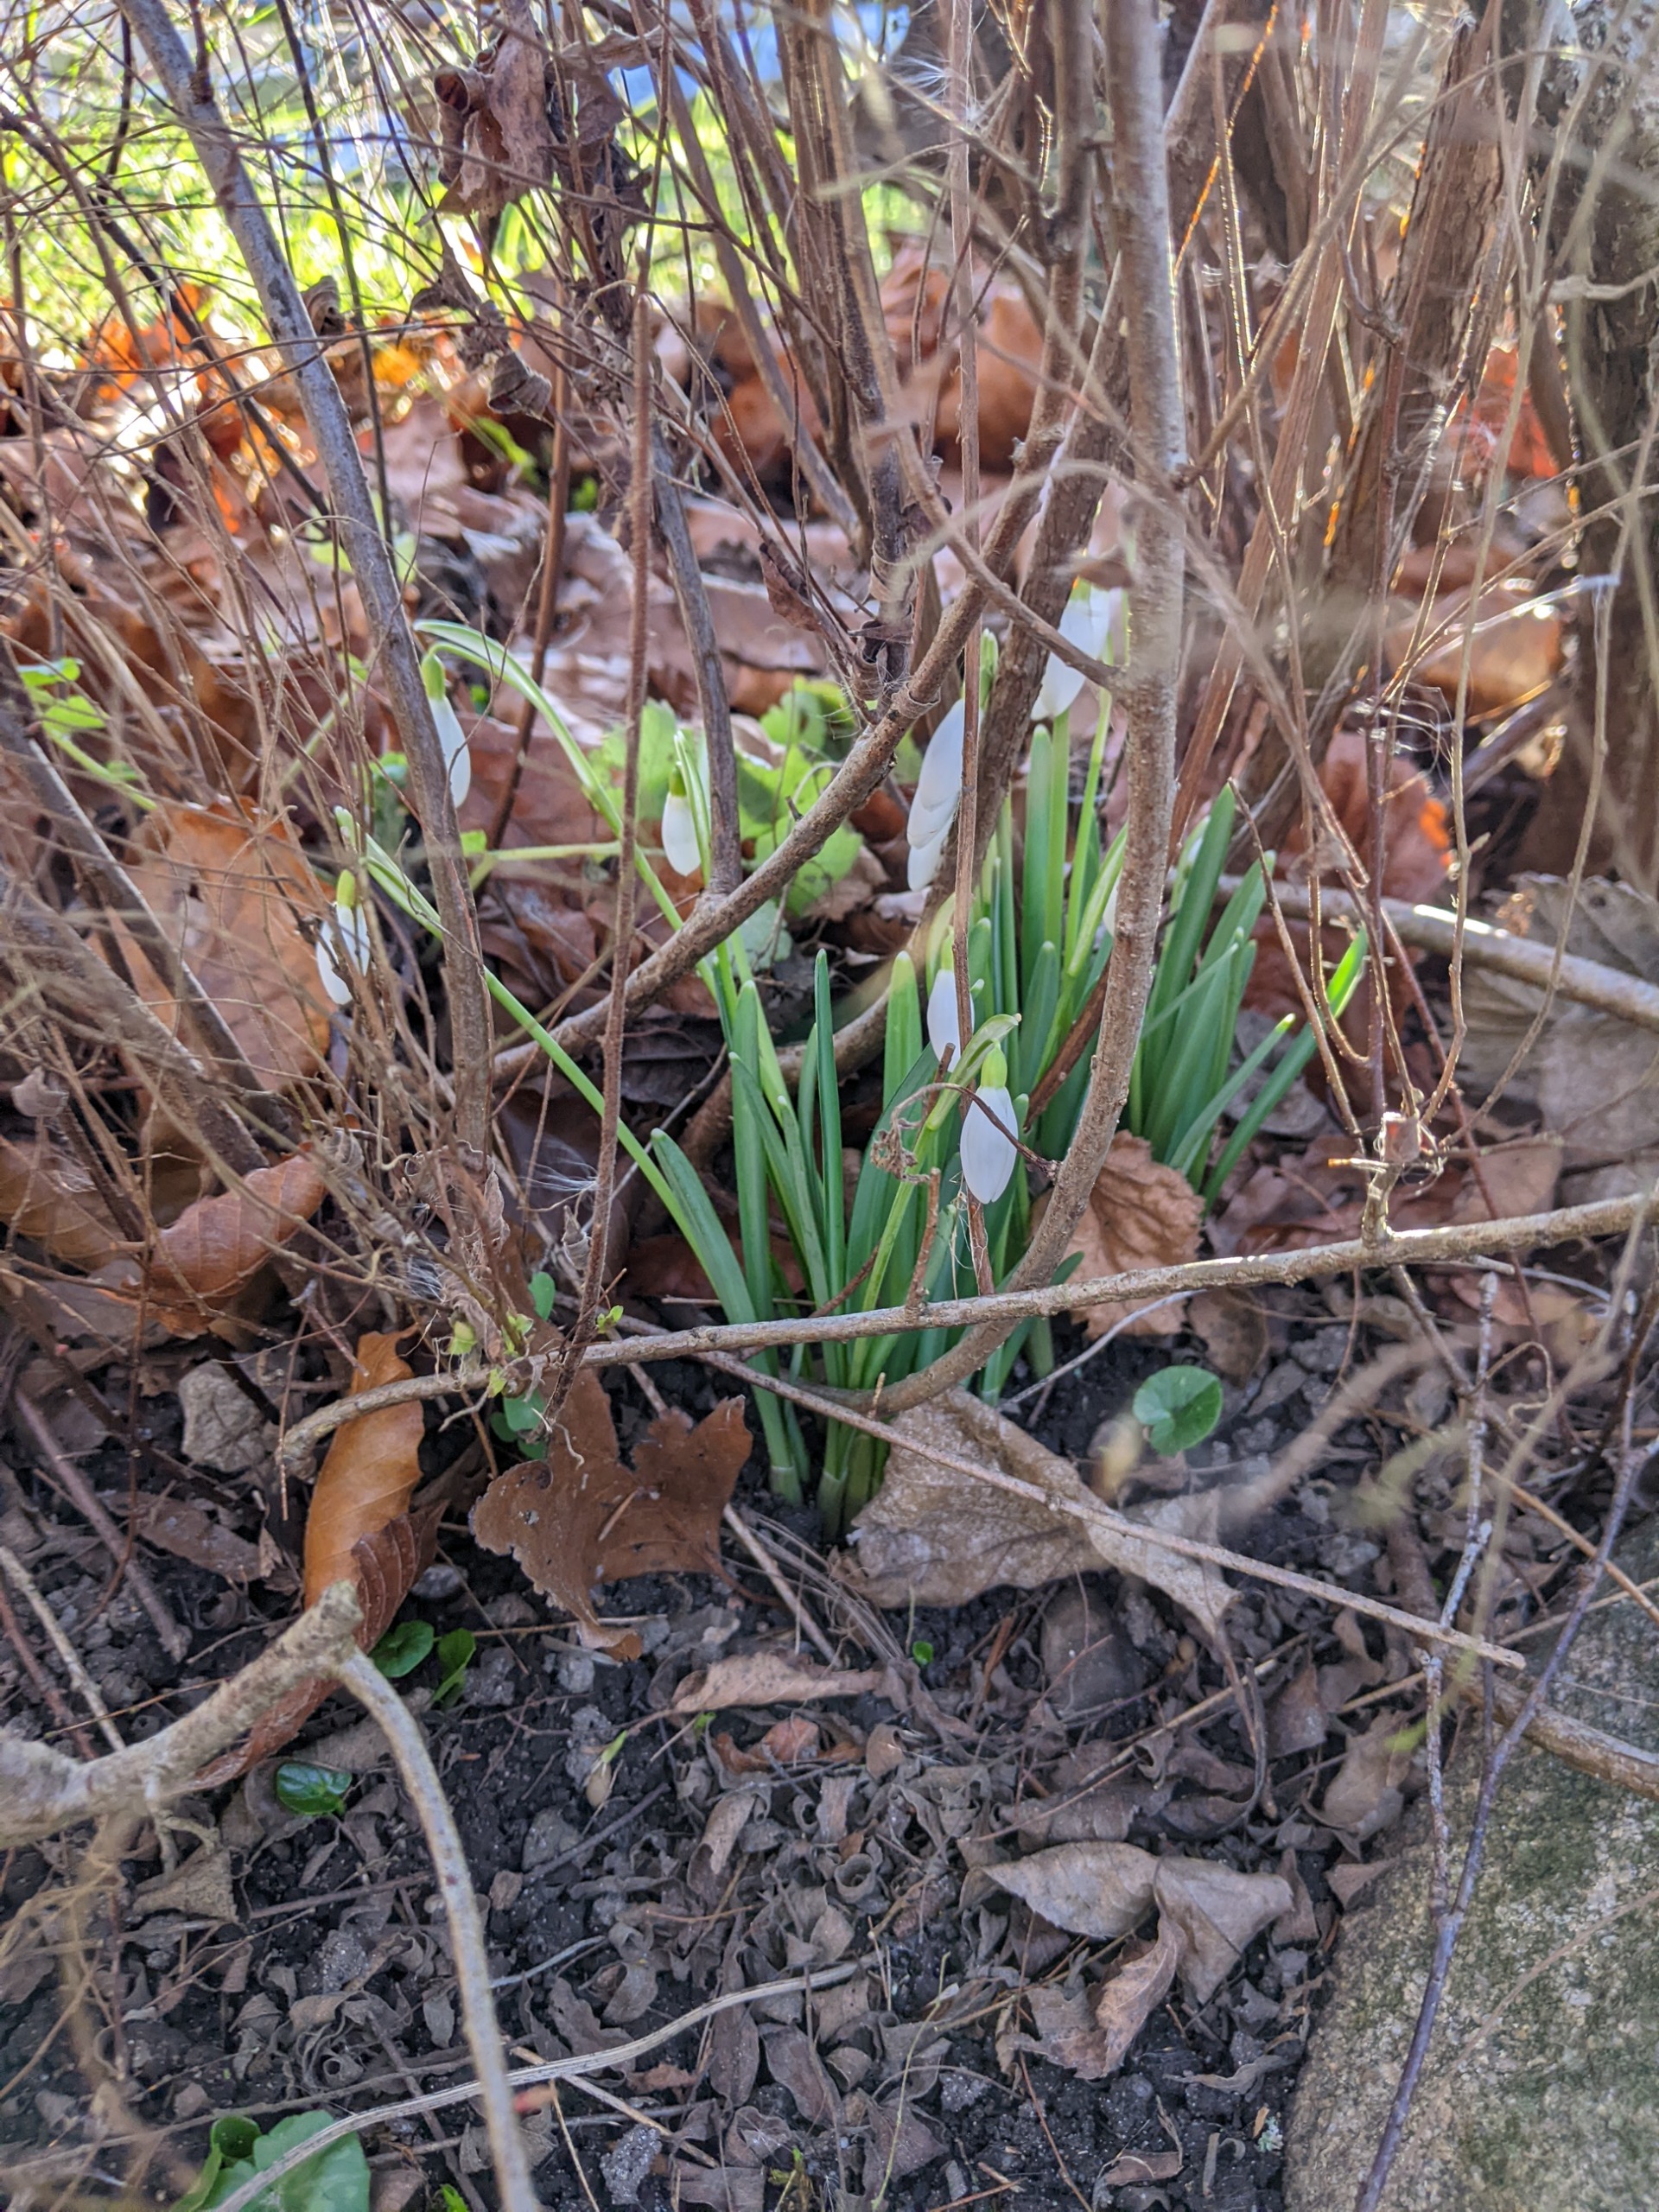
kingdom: Plantae
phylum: Tracheophyta
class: Liliopsida
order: Asparagales
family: Amaryllidaceae
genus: Galanthus
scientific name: Galanthus nivalis
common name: Vintergæk
